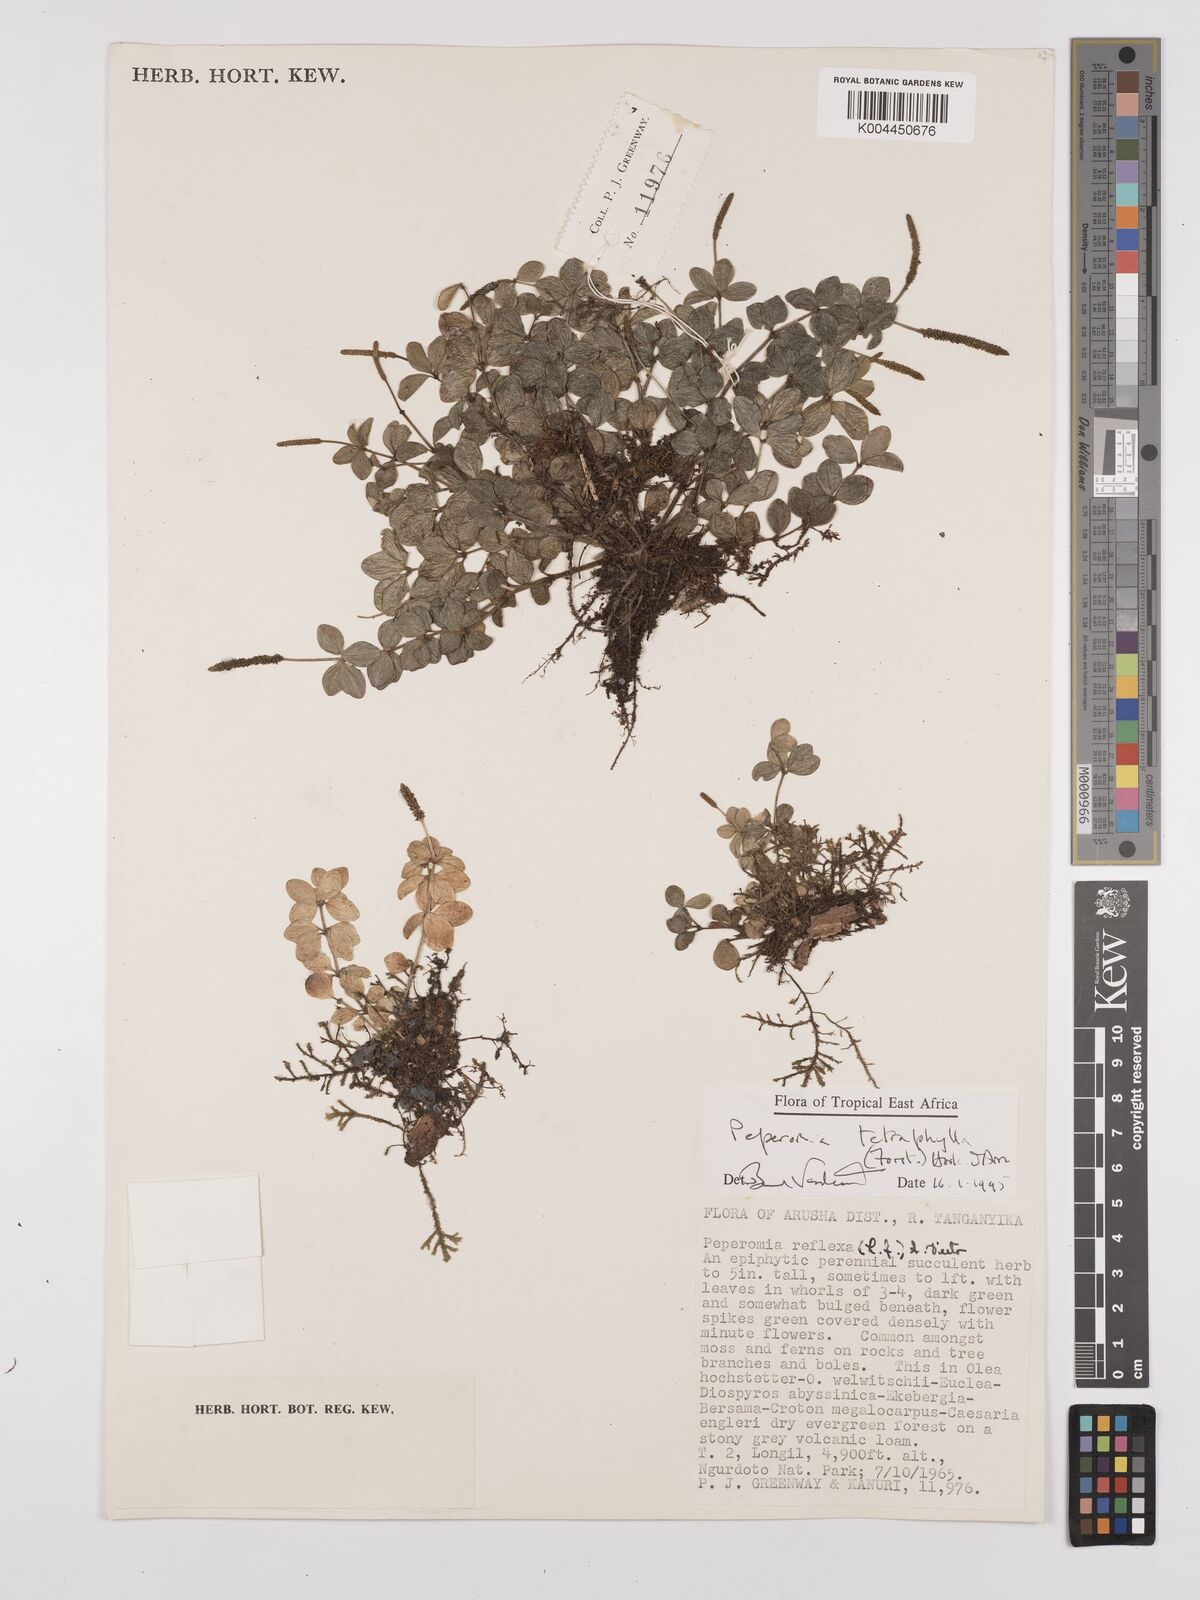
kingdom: Plantae
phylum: Tracheophyta
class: Magnoliopsida
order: Piperales
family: Piperaceae
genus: Peperomia
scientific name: Peperomia tetraphylla
